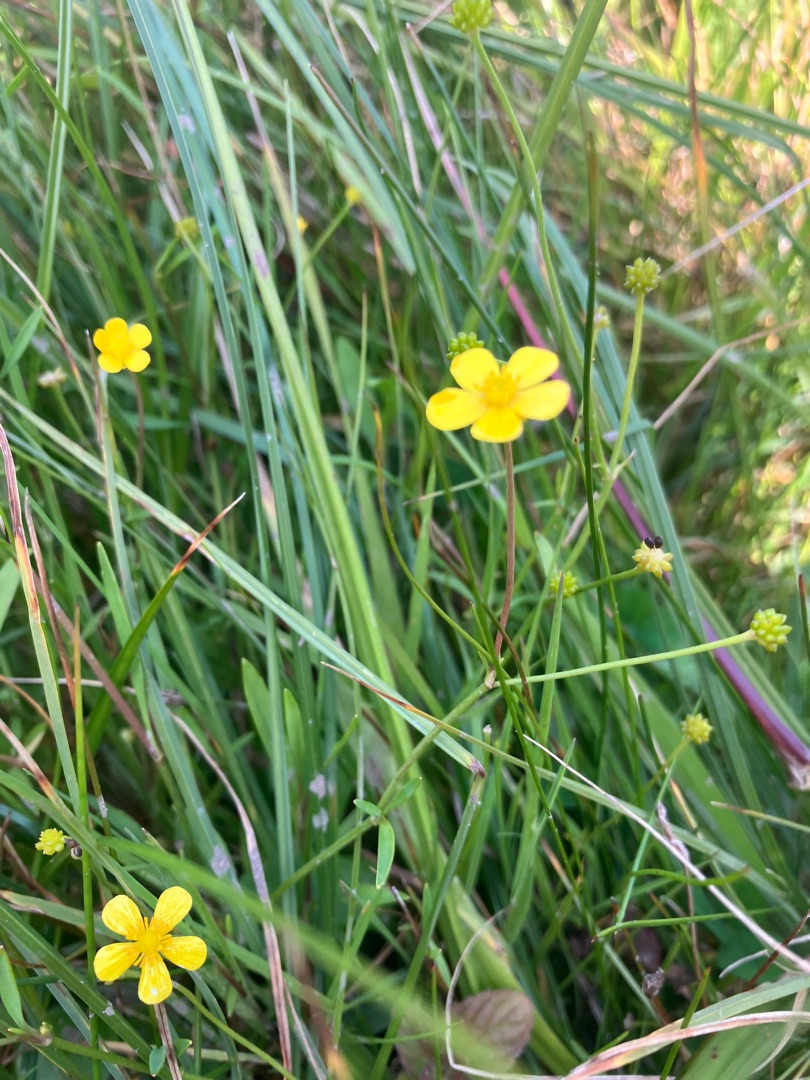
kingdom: Plantae
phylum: Tracheophyta
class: Magnoliopsida
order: Ranunculales
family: Ranunculaceae
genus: Ranunculus
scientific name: Ranunculus flammula
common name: Kær-ranunkel
